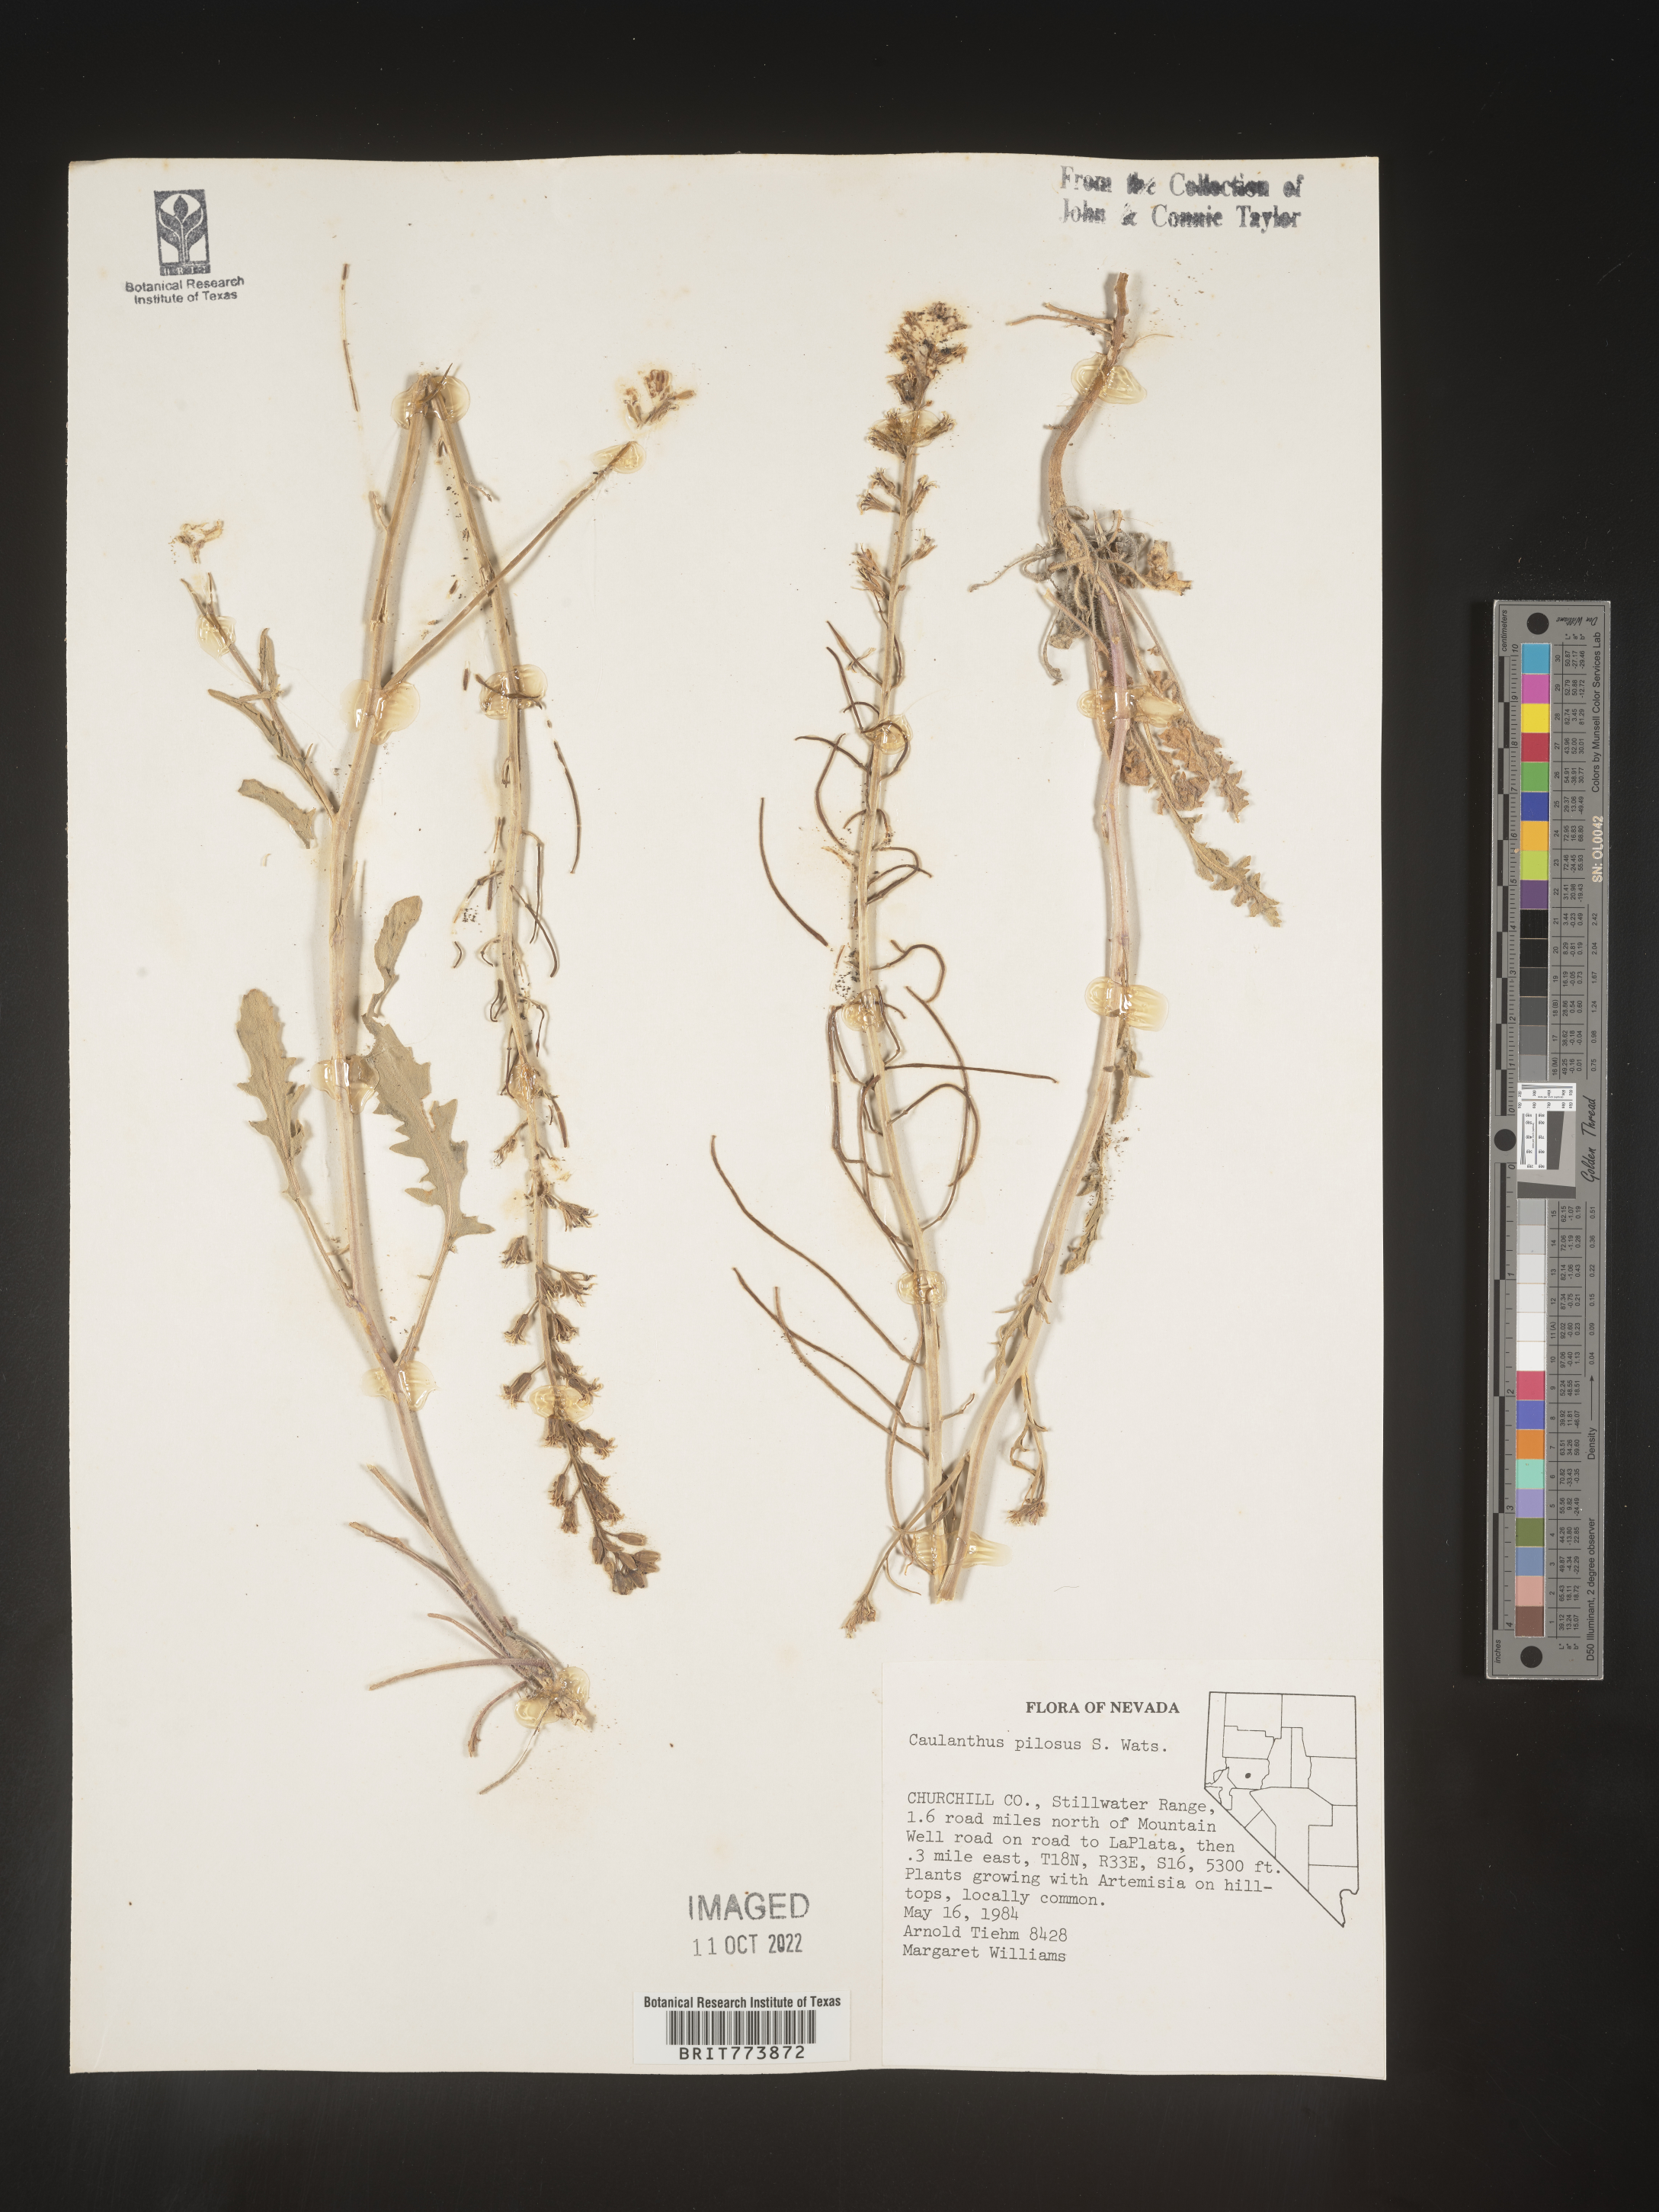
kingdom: Plantae
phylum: Tracheophyta
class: Magnoliopsida
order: Brassicales
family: Brassicaceae
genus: Streptanthus
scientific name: Streptanthus
